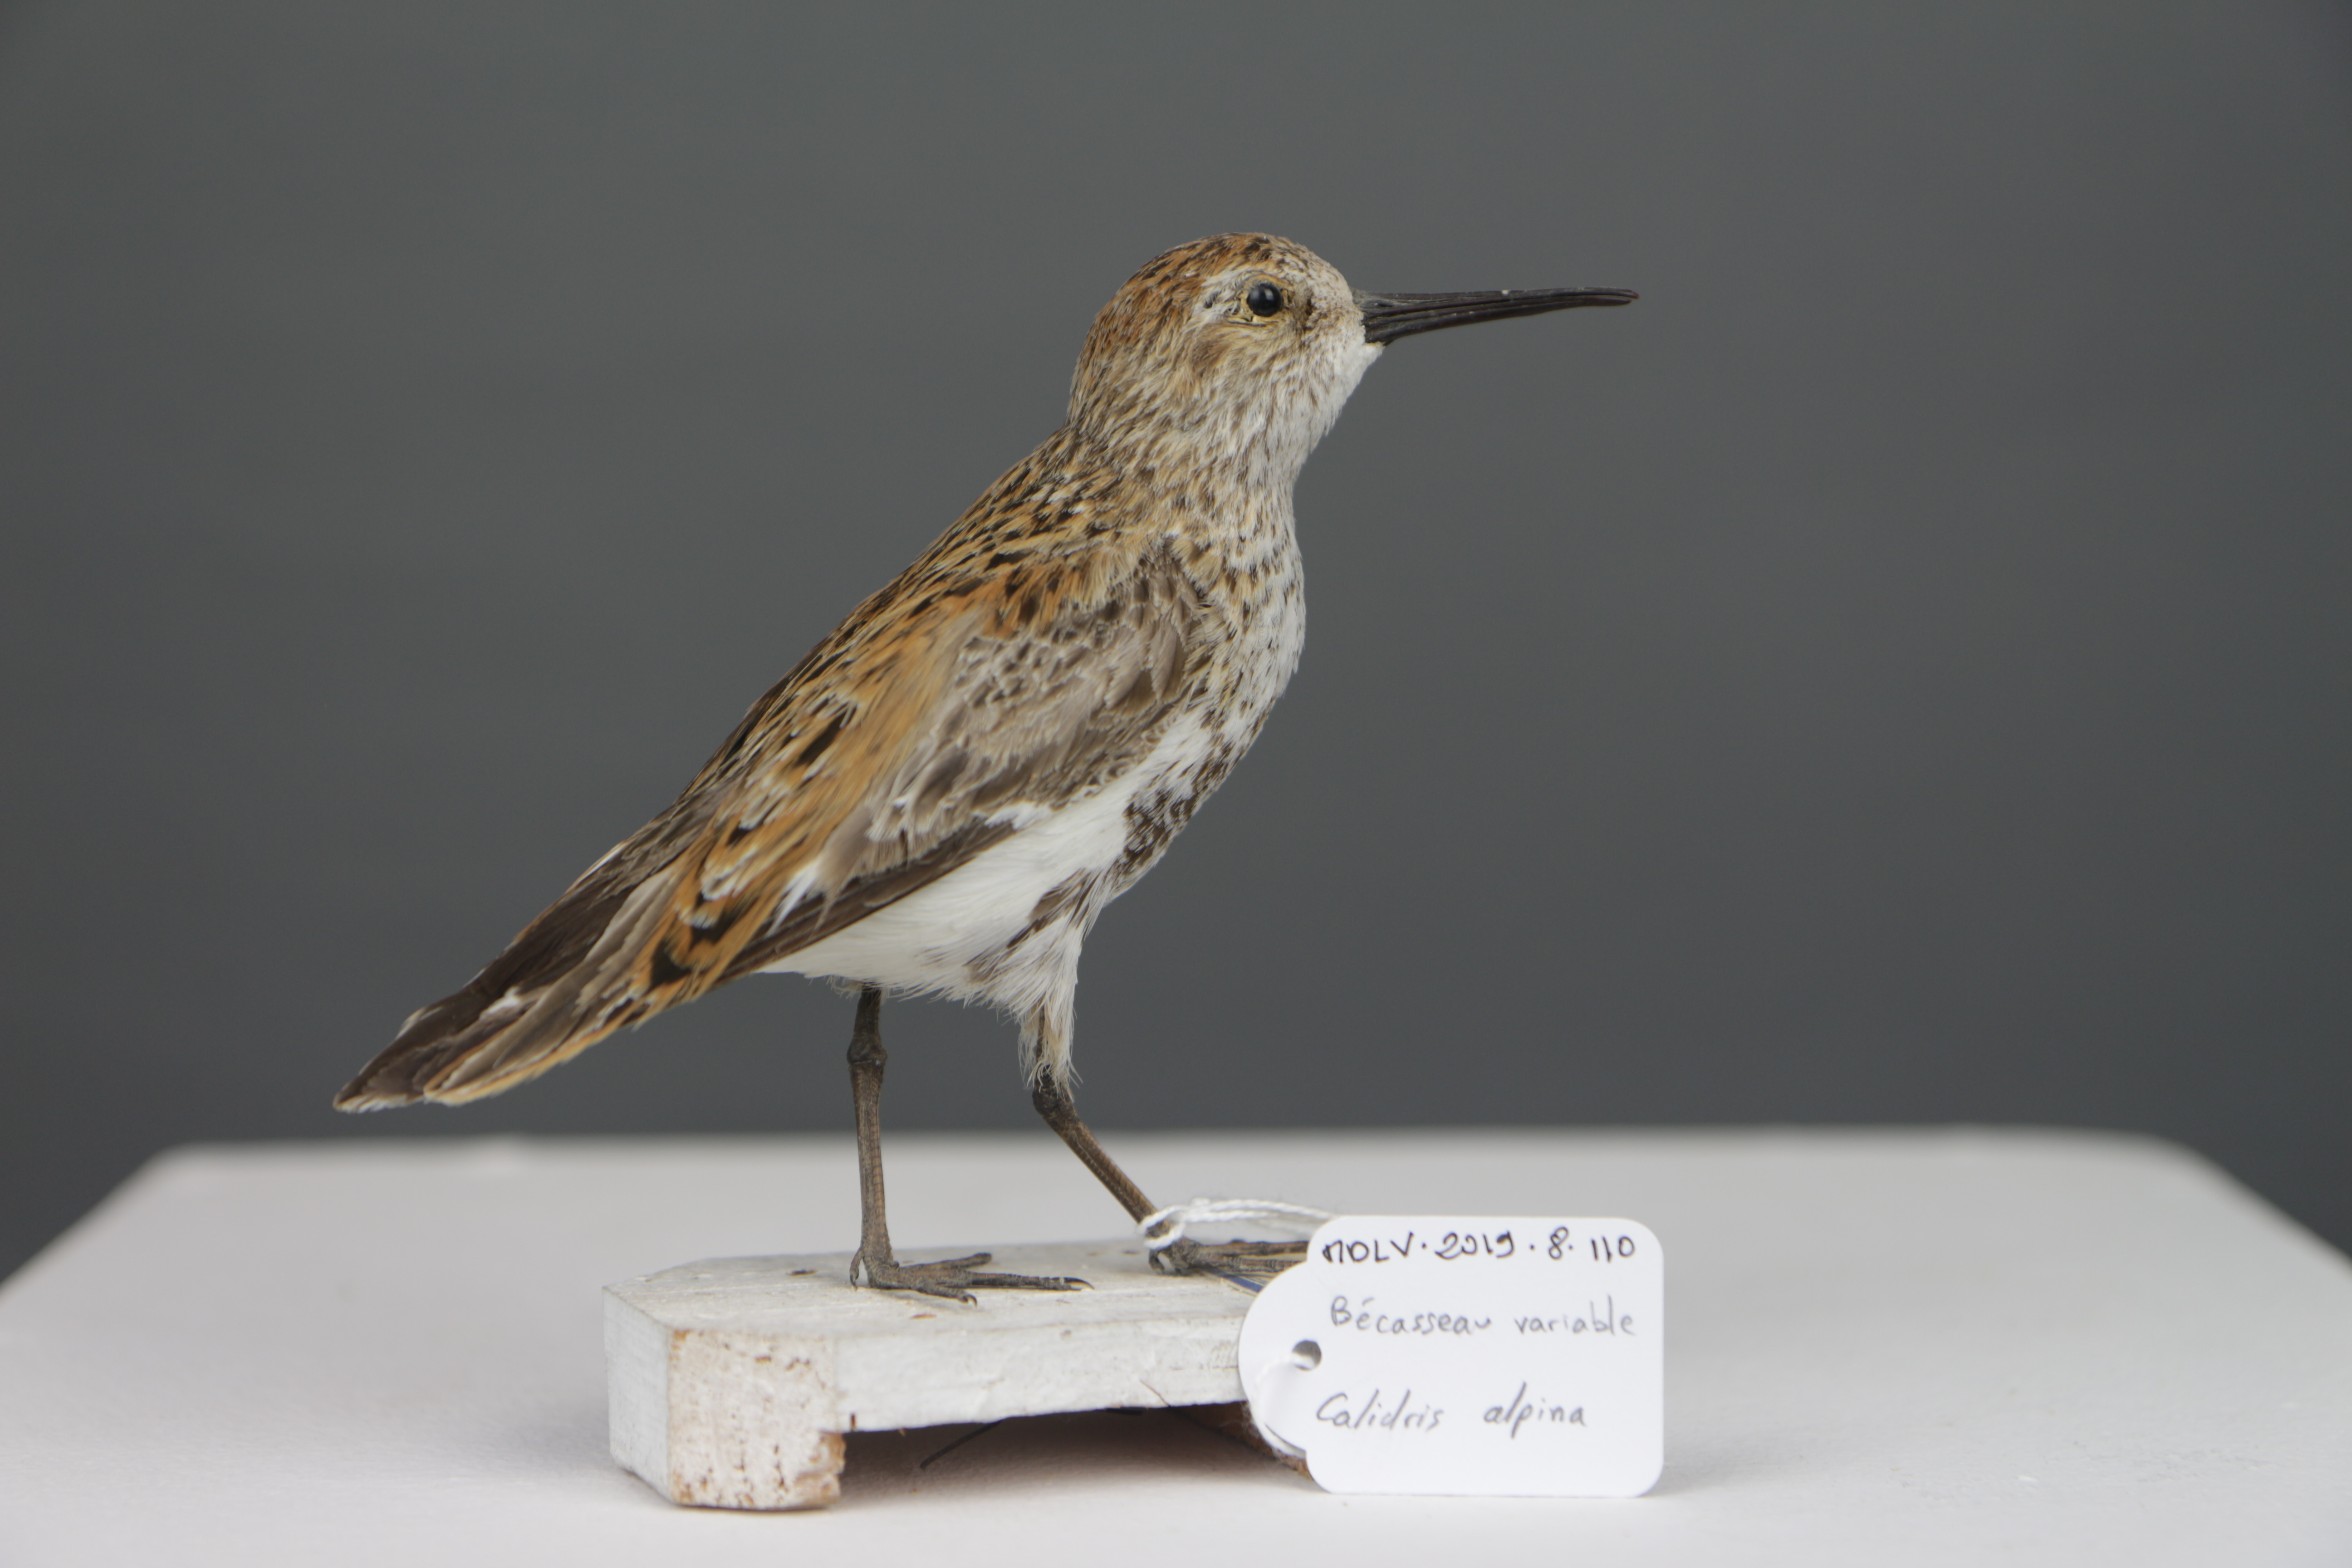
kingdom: Animalia
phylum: Chordata
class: Aves
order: Charadriiformes
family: Scolopacidae
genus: Calidris
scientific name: Calidris alpina
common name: Dunlin
